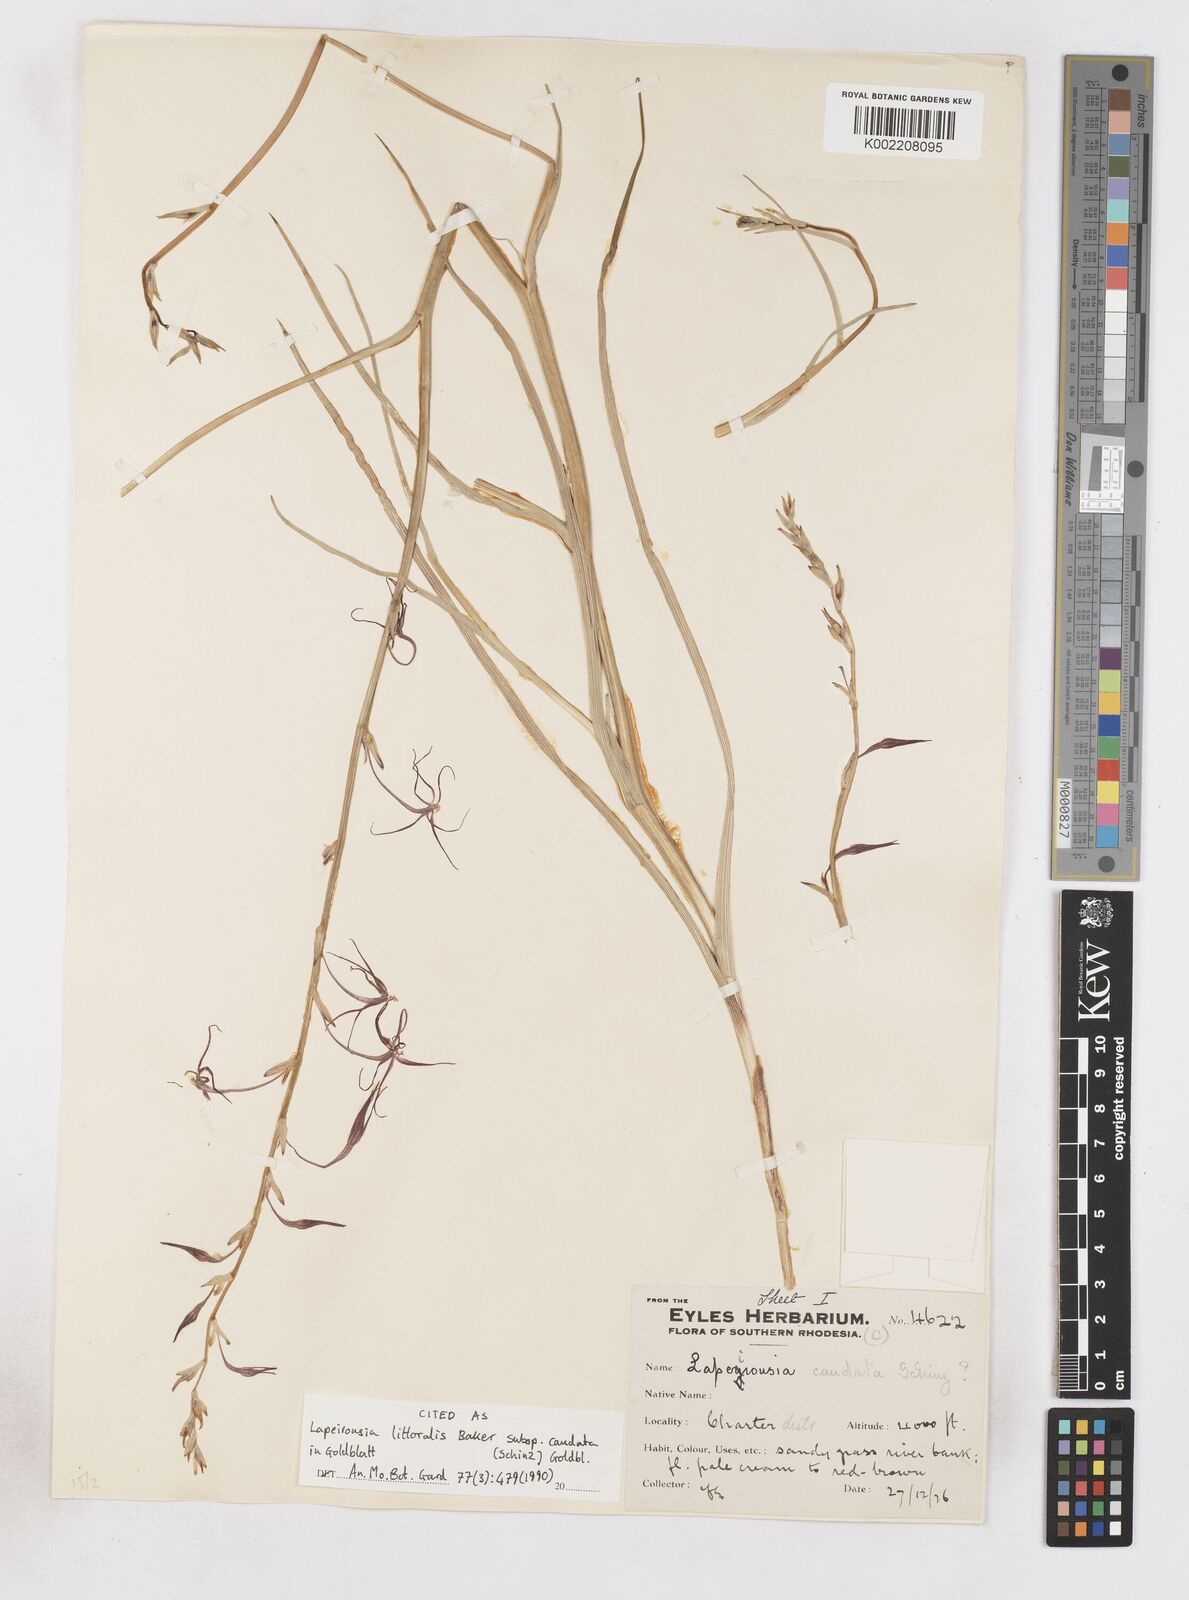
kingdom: Plantae
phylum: Tracheophyta
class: Liliopsida
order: Asparagales
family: Iridaceae
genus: Lapeirousia
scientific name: Lapeirousia caudata
